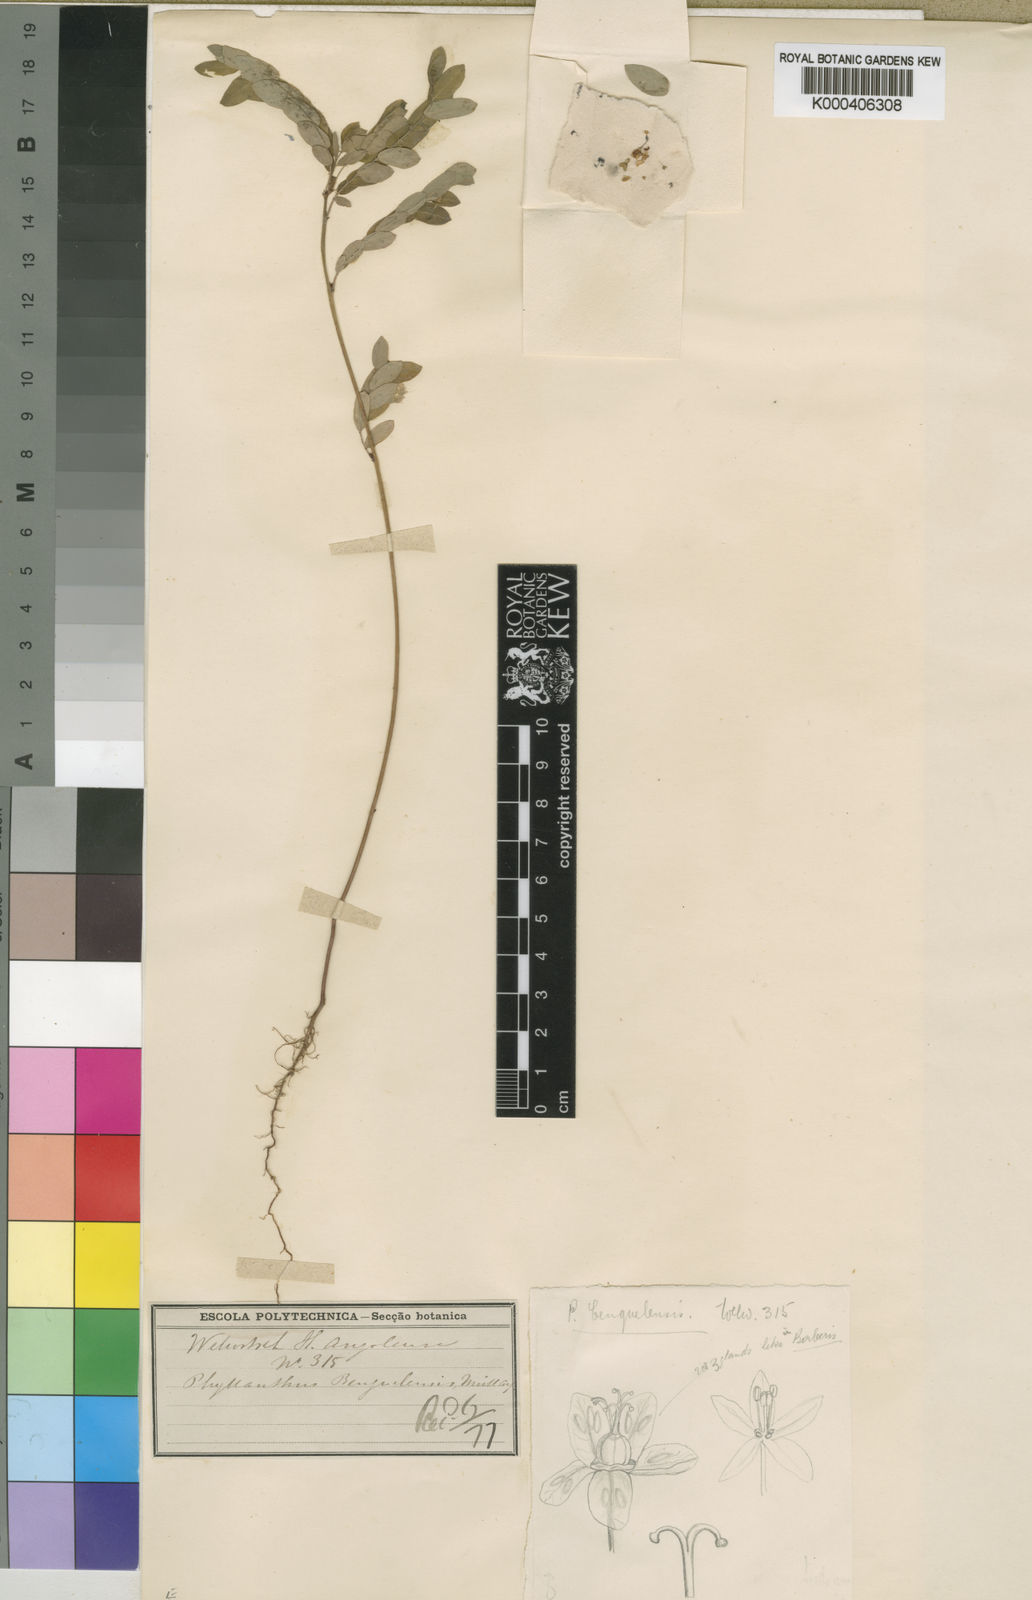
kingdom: Plantae
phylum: Tracheophyta
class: Magnoliopsida
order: Malpighiales
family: Phyllanthaceae
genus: Phyllanthus
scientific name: Phyllanthus
